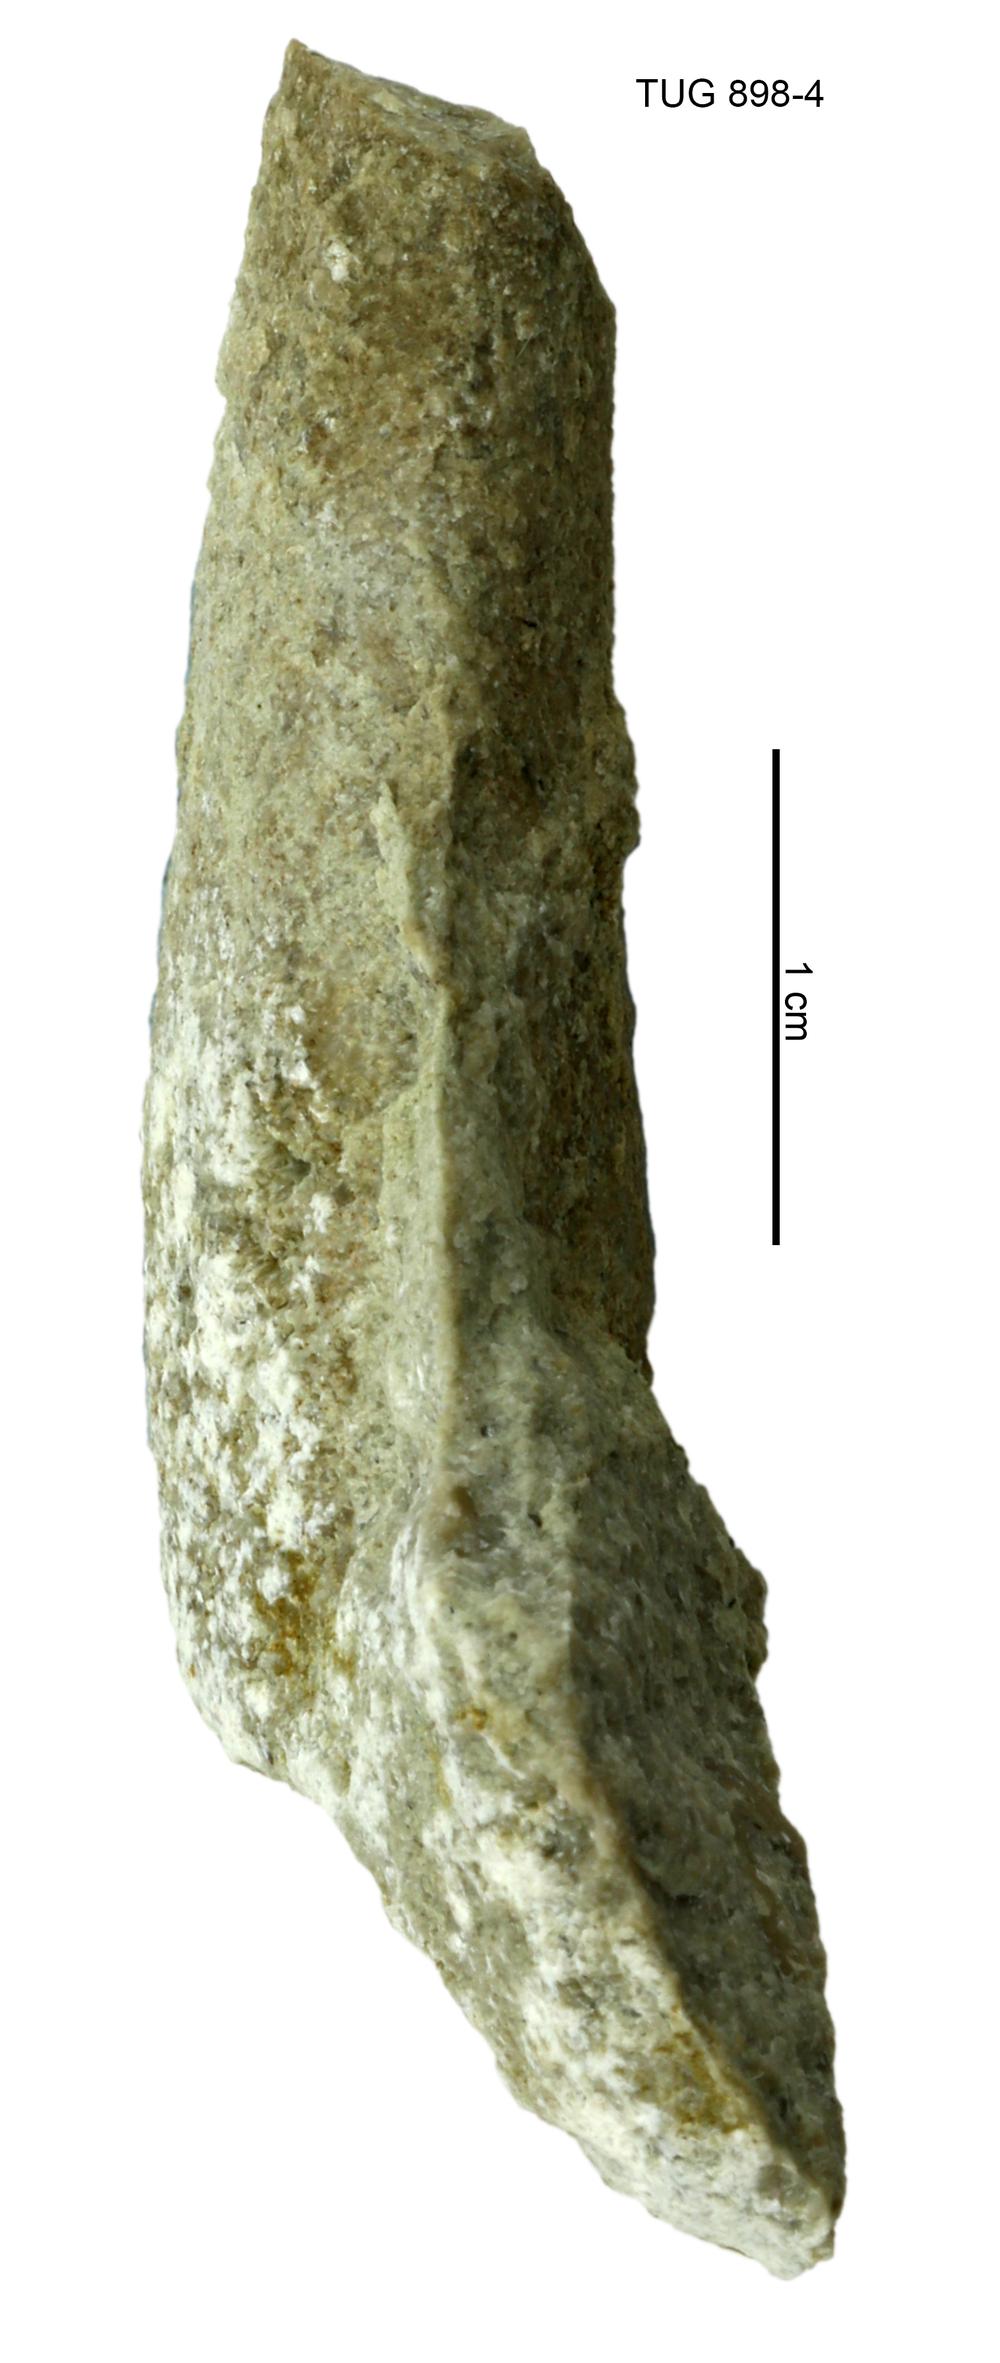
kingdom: Animalia
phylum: Annelida
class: Polychaeta
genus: Hyolithes
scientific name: Hyolithes
